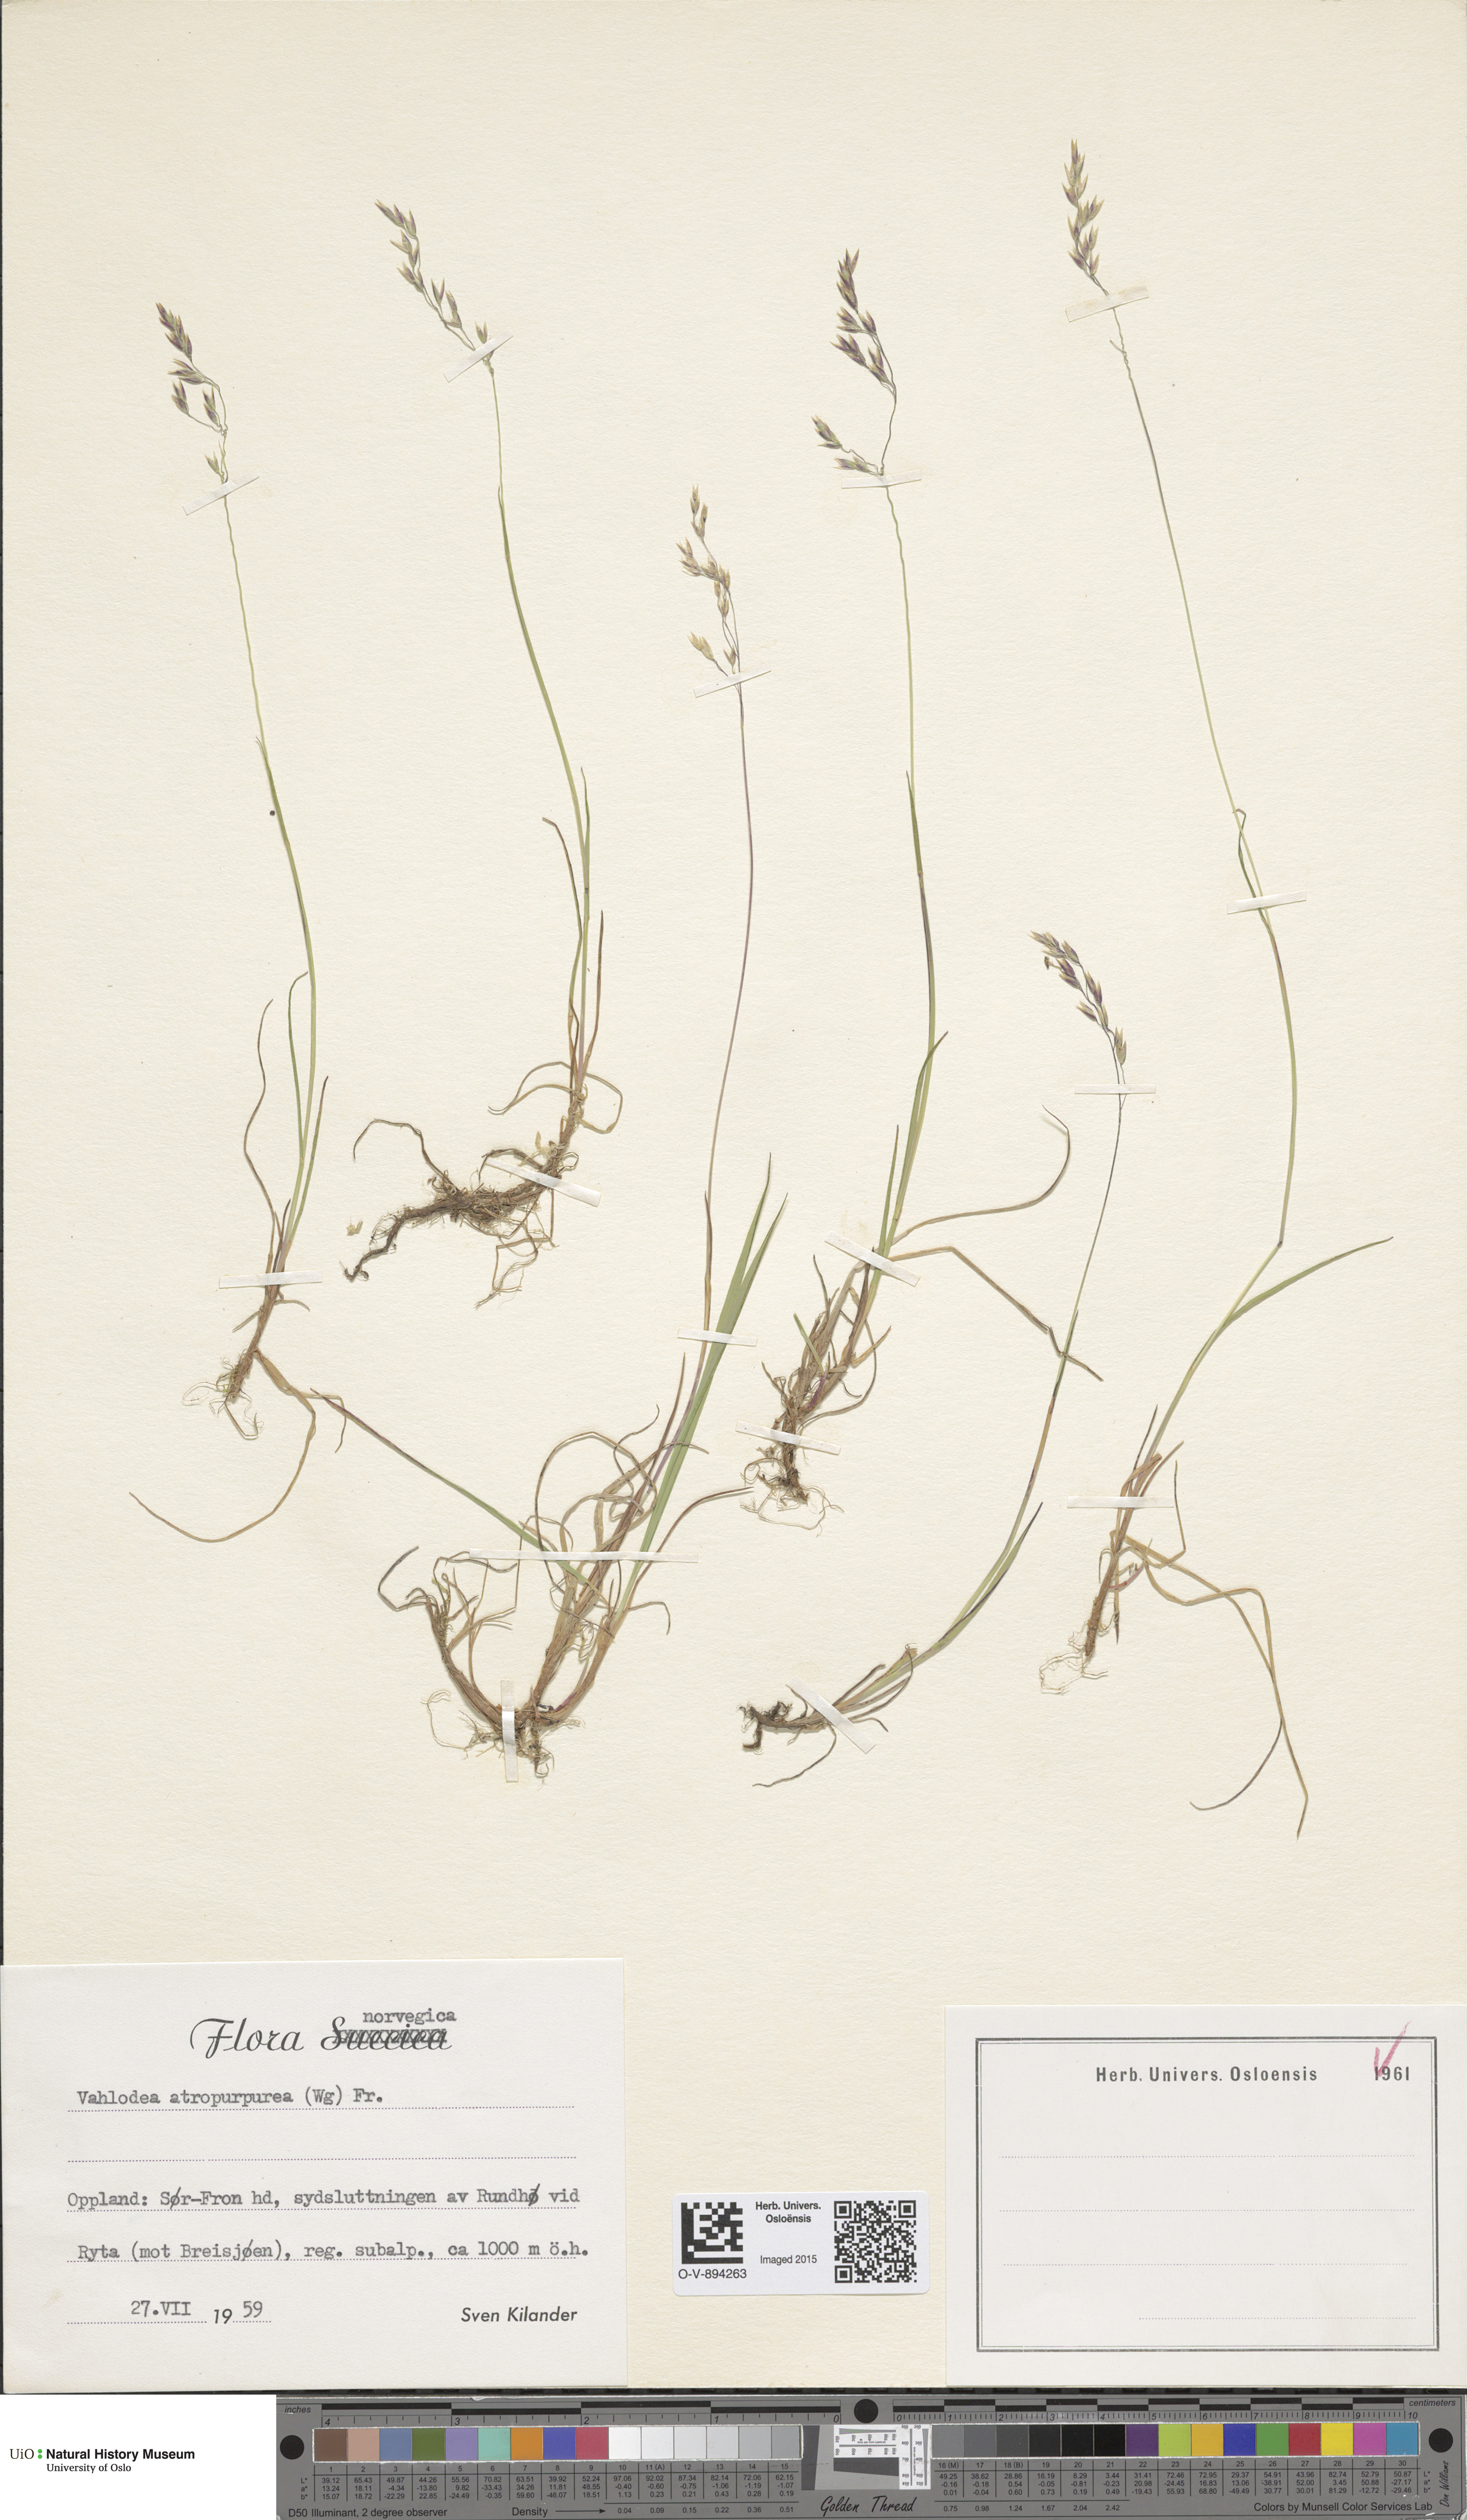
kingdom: Plantae
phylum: Tracheophyta
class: Liliopsida
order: Poales
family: Poaceae
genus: Vahlodea
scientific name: Vahlodea atropurpurea
